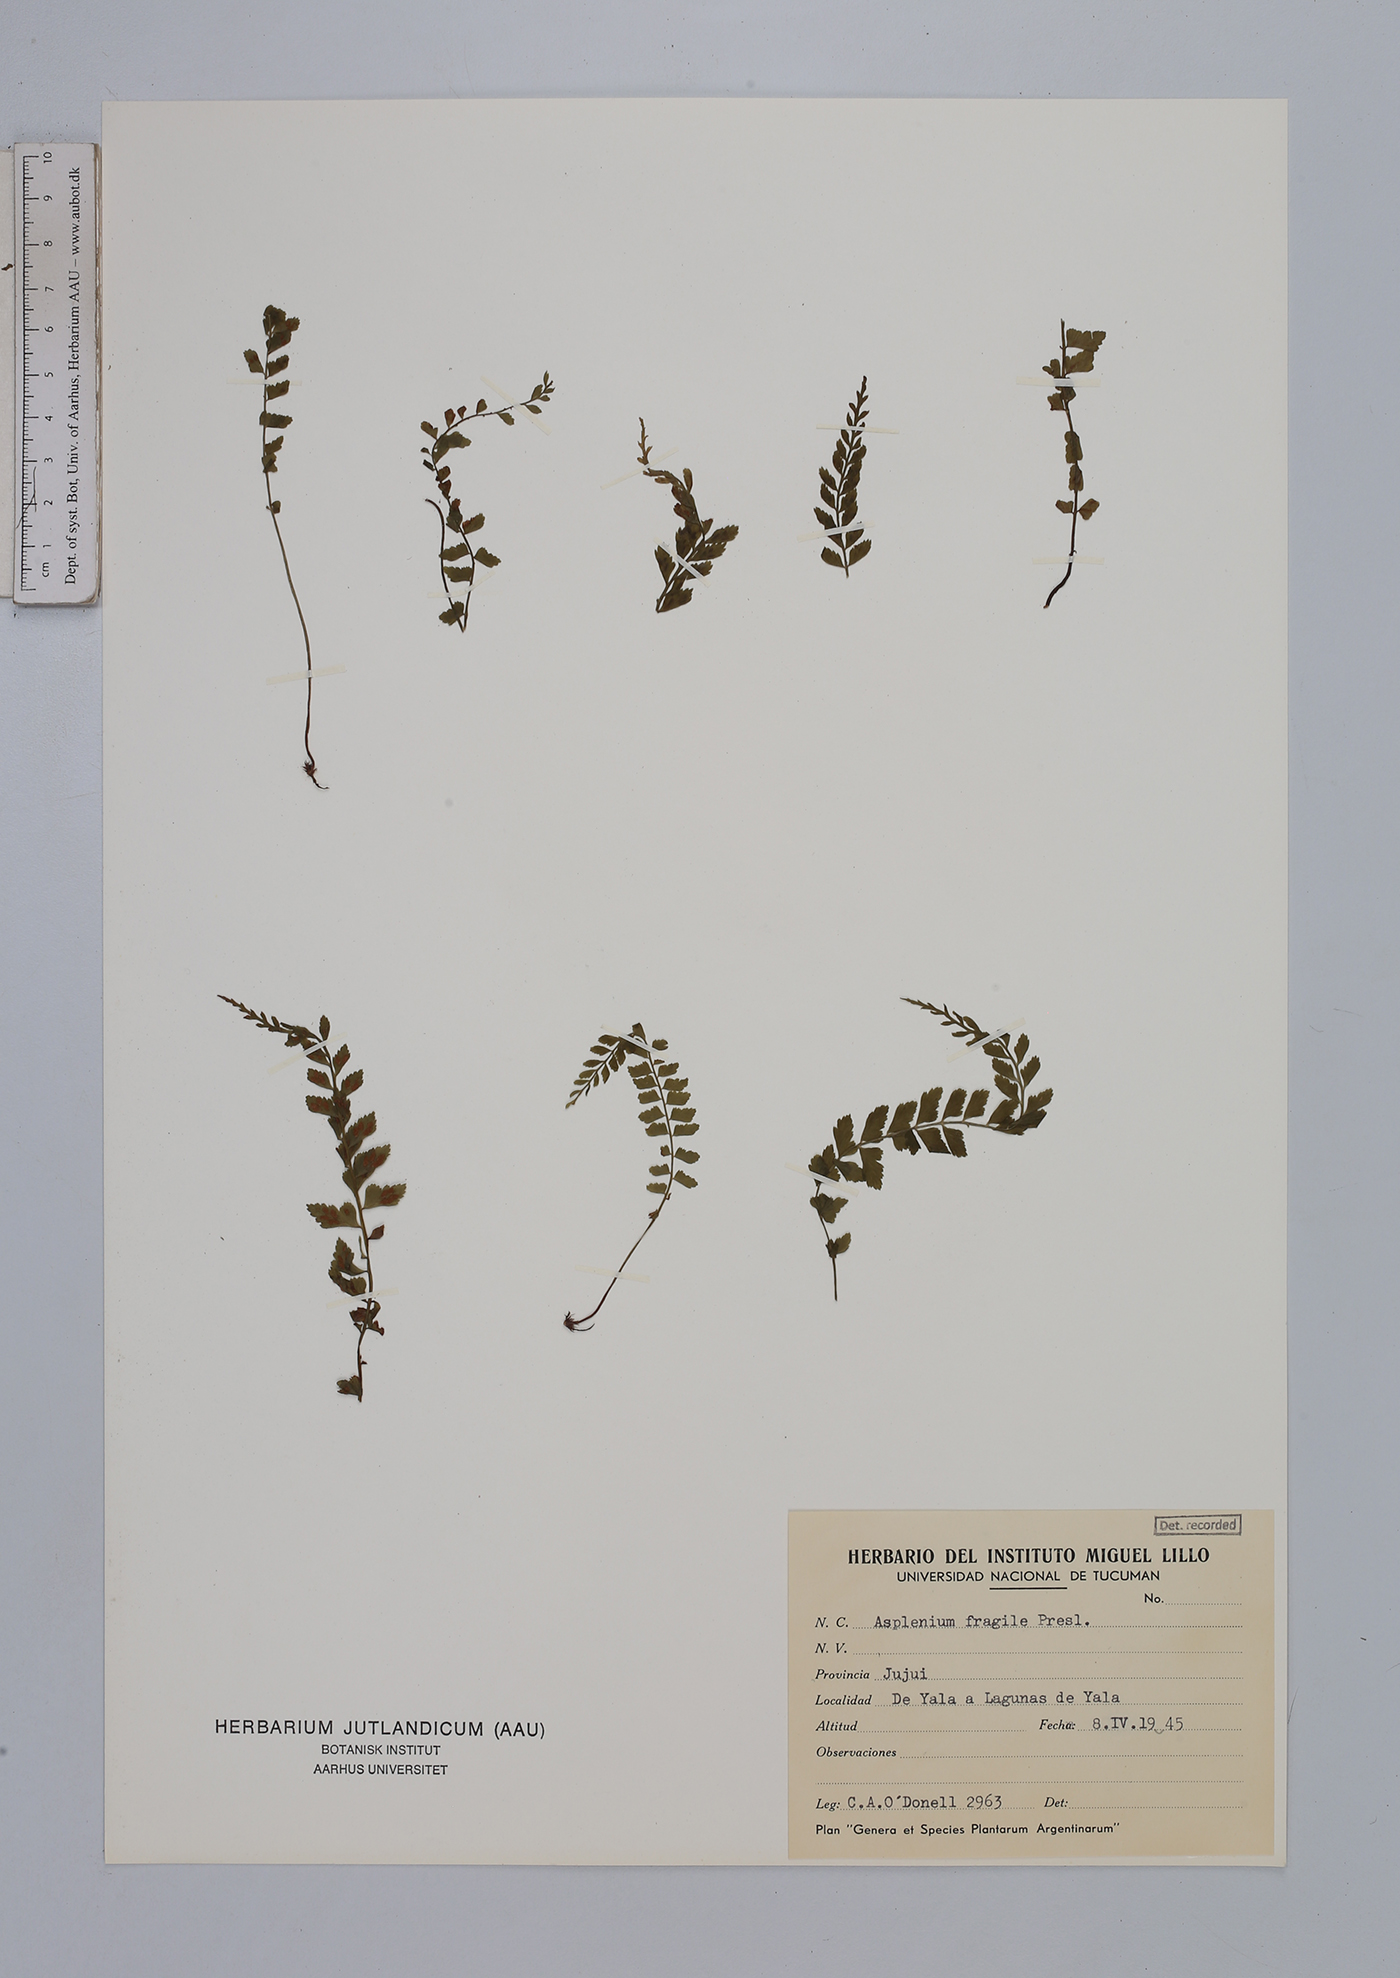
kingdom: Plantae
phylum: Tracheophyta
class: Polypodiopsida
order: Polypodiales
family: Aspleniaceae
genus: Asplenium
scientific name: Asplenium peruvianum
